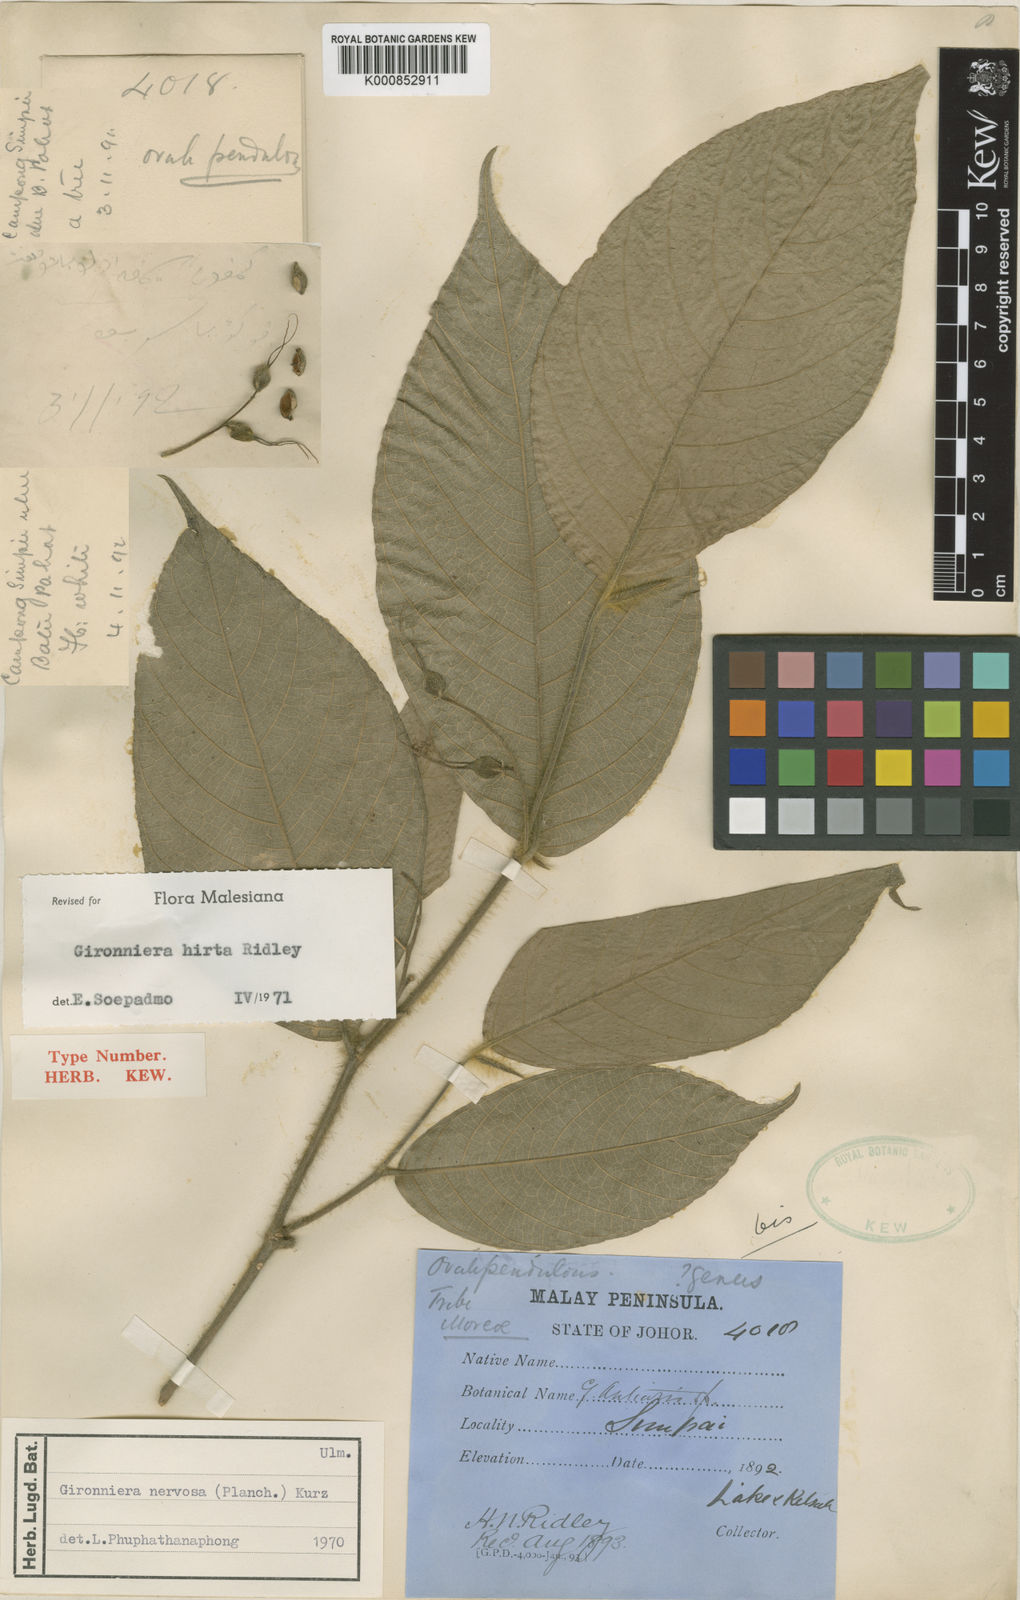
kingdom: Plantae
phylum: Tracheophyta
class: Magnoliopsida
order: Rosales
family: Cannabaceae
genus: Gironniera
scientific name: Gironniera hirta
